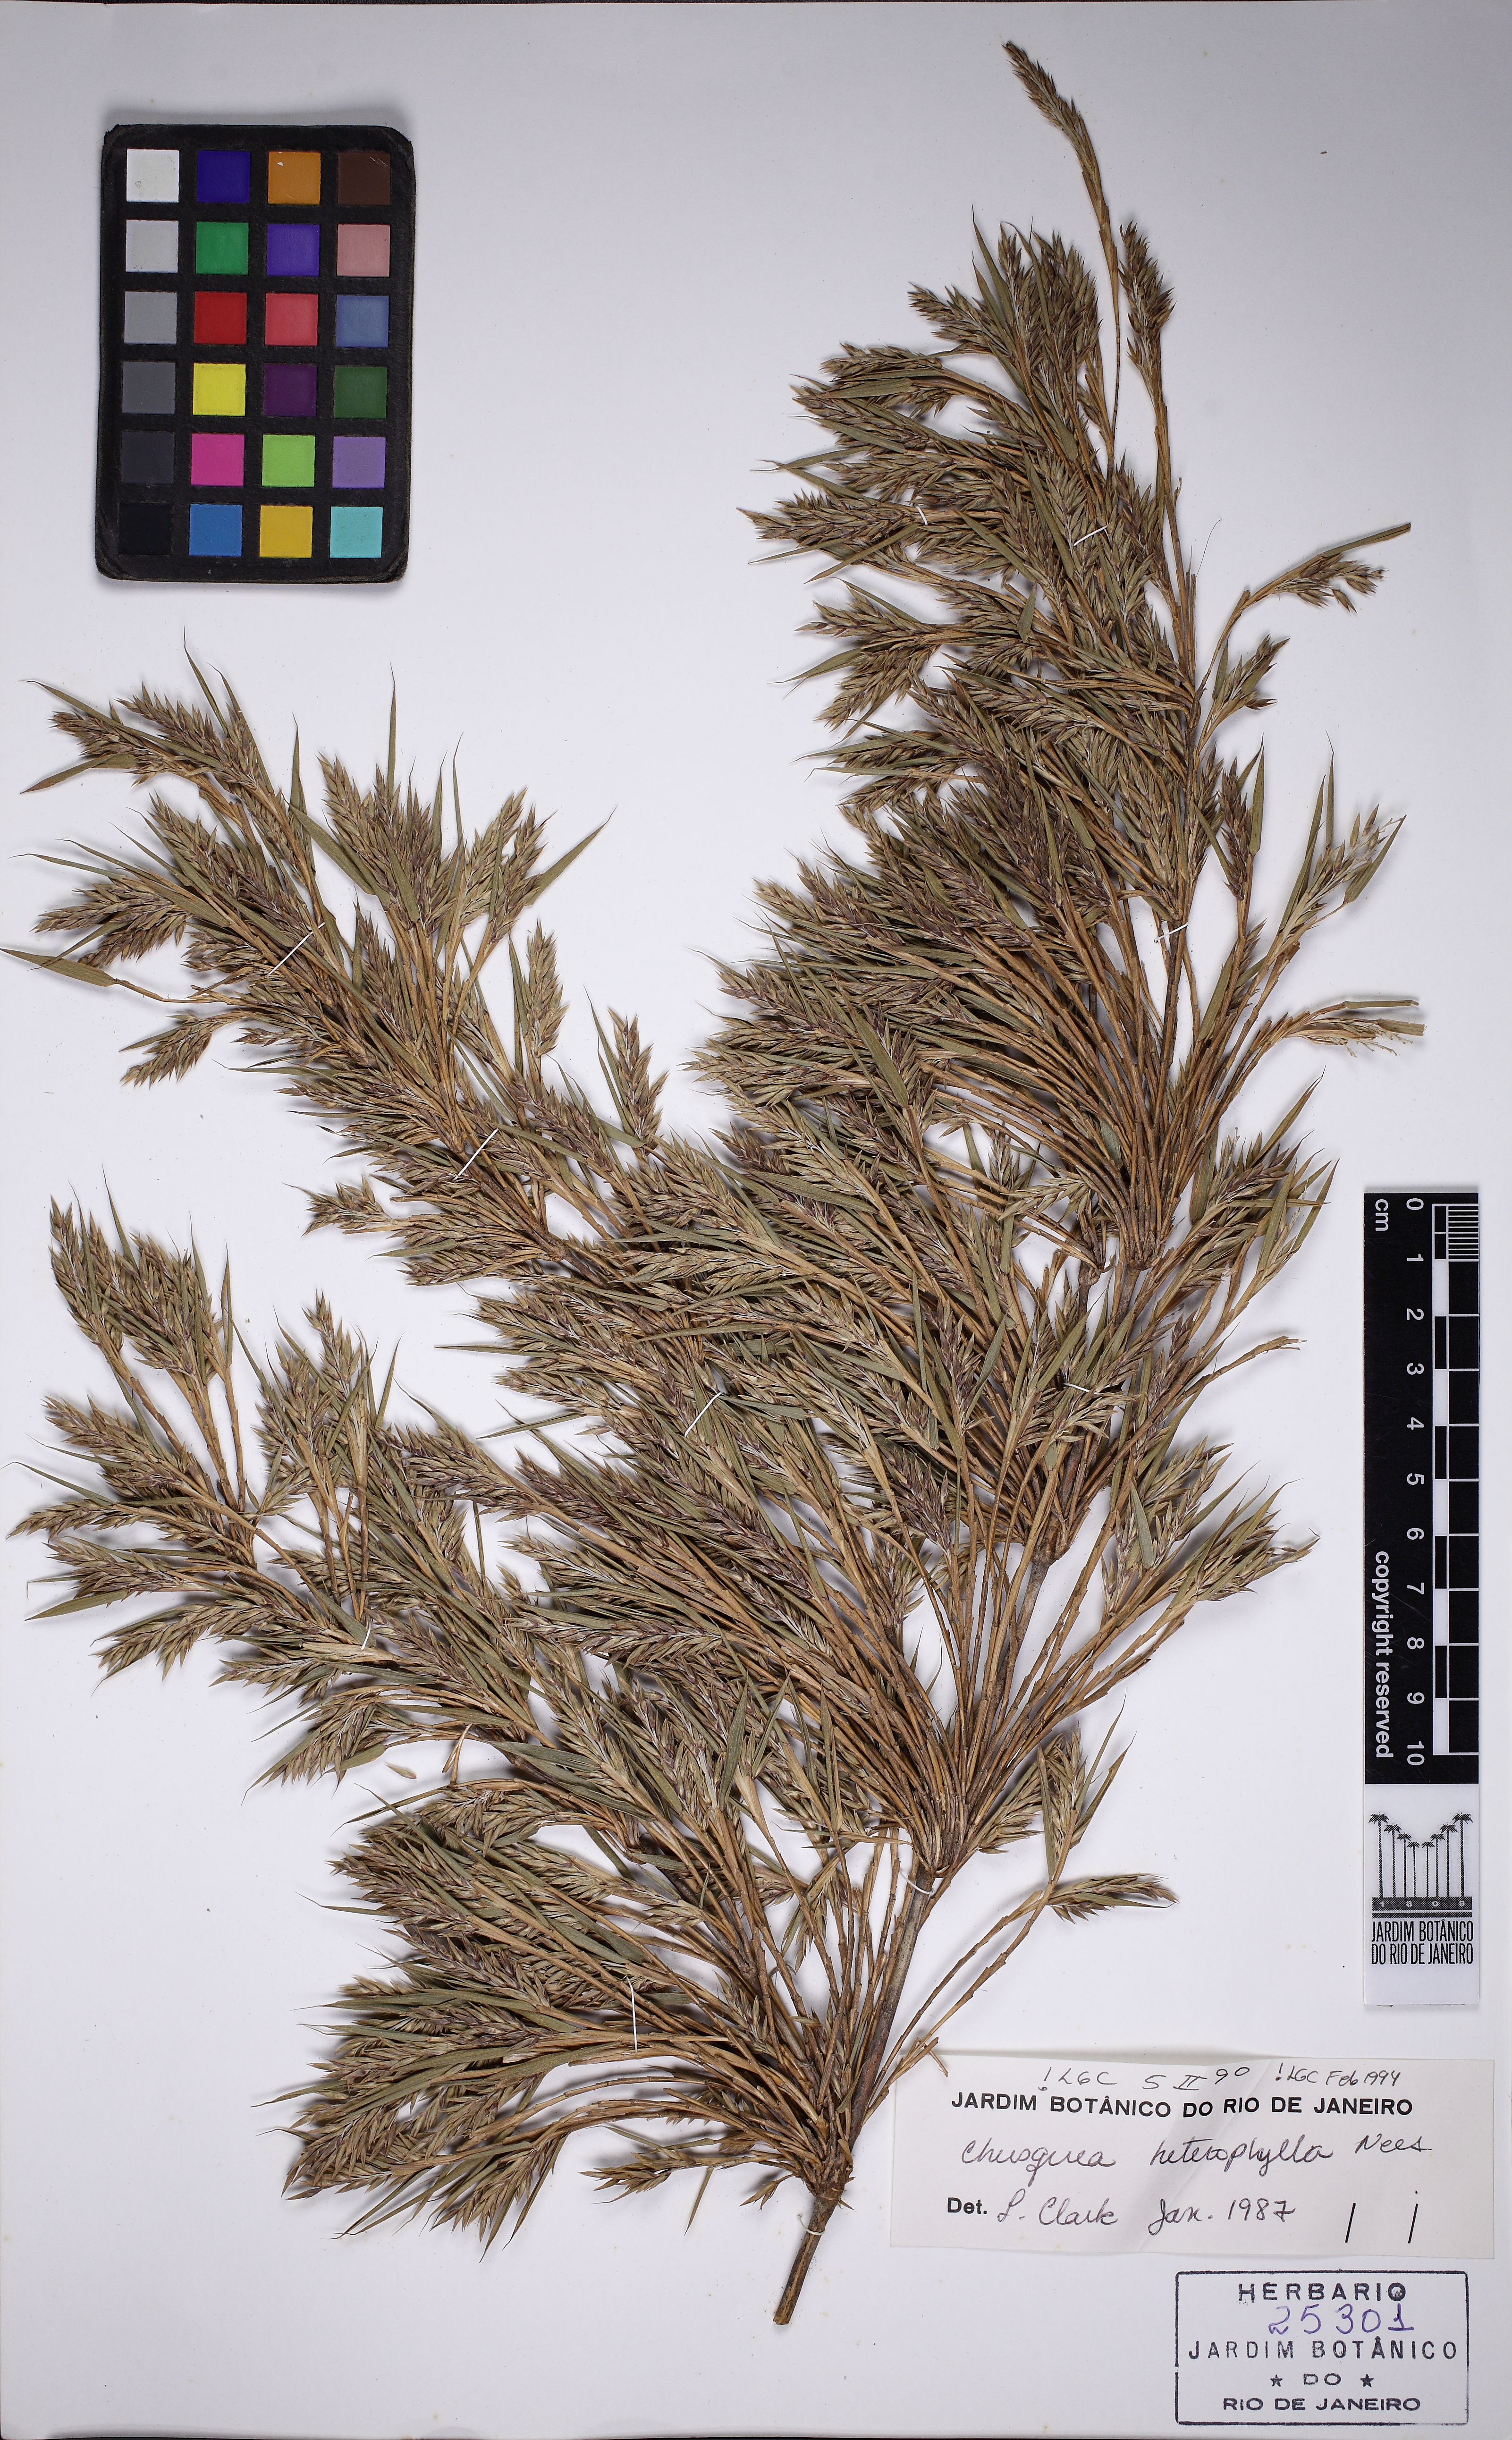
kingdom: Plantae
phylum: Tracheophyta
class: Liliopsida
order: Poales
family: Poaceae
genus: Chusquea
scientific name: Chusquea heterophylla
